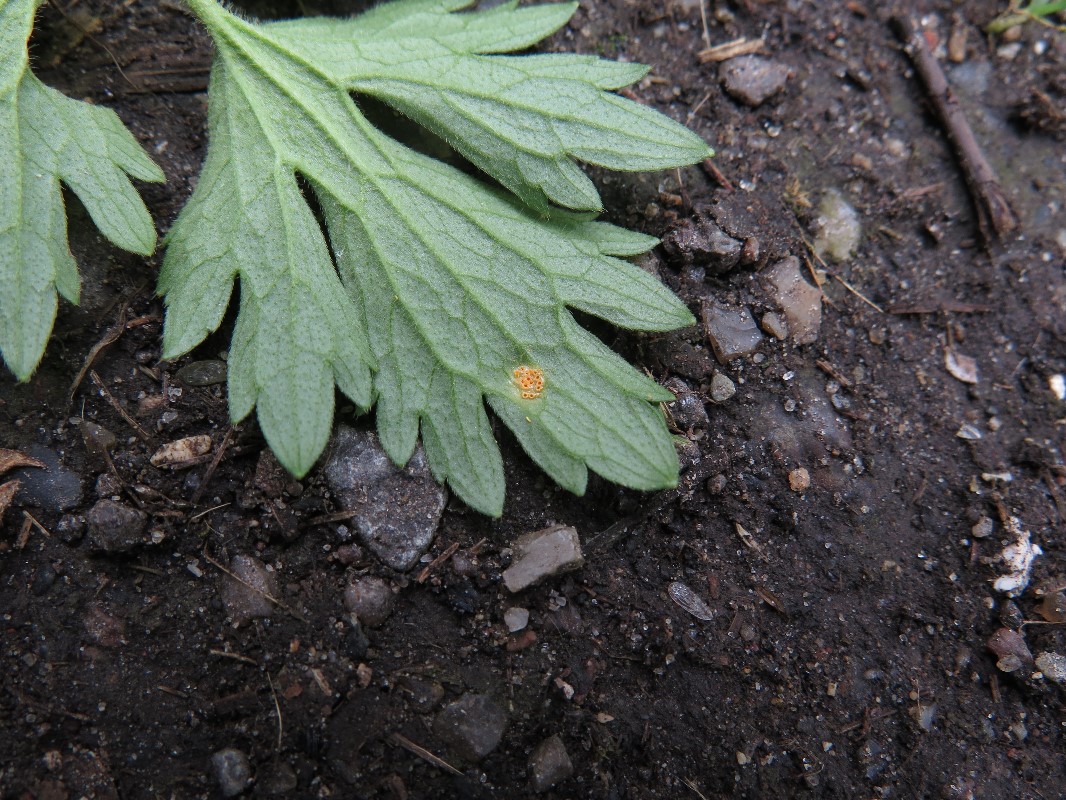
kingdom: Fungi
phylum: Basidiomycota
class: Pucciniomycetes
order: Pucciniales
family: Pucciniaceae
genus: Puccinia
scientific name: Puccinia magnusiana
